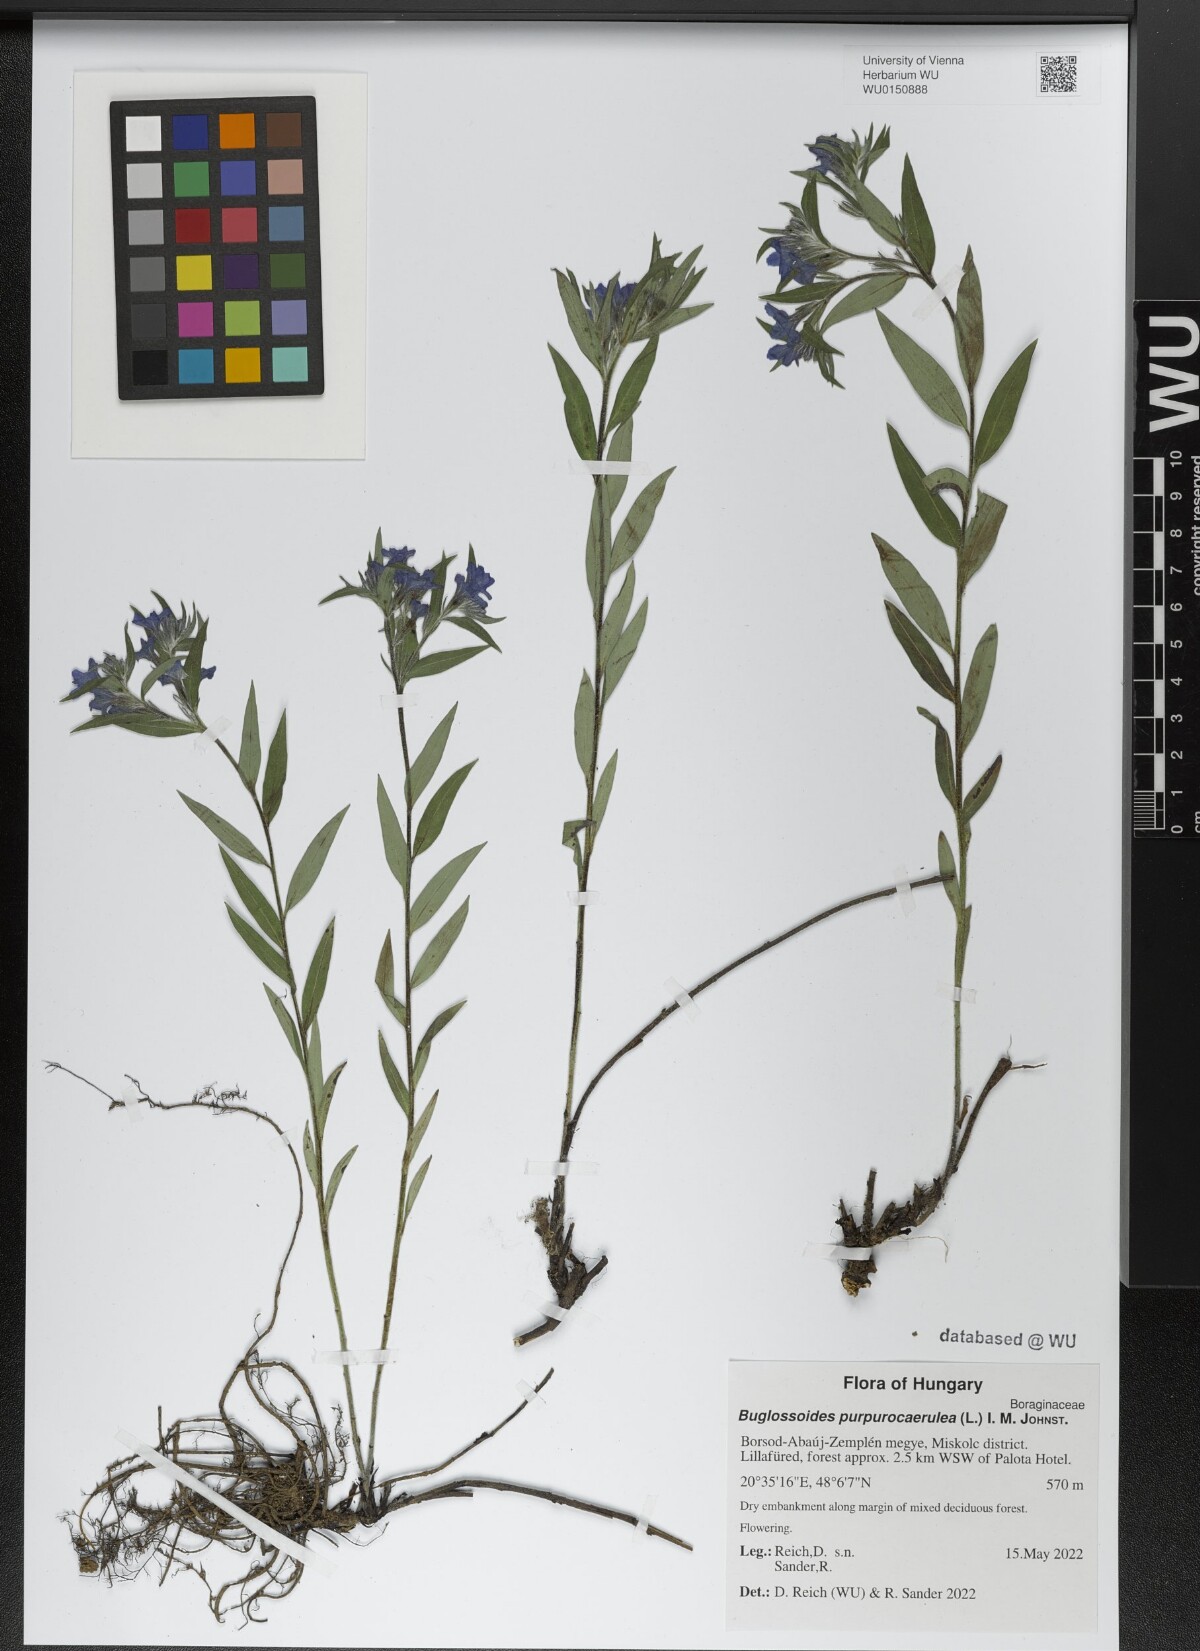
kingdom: Plantae
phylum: Tracheophyta
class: Magnoliopsida
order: Boraginales
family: Boraginaceae
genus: Aegonychon
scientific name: Aegonychon purpurocaeruleum
